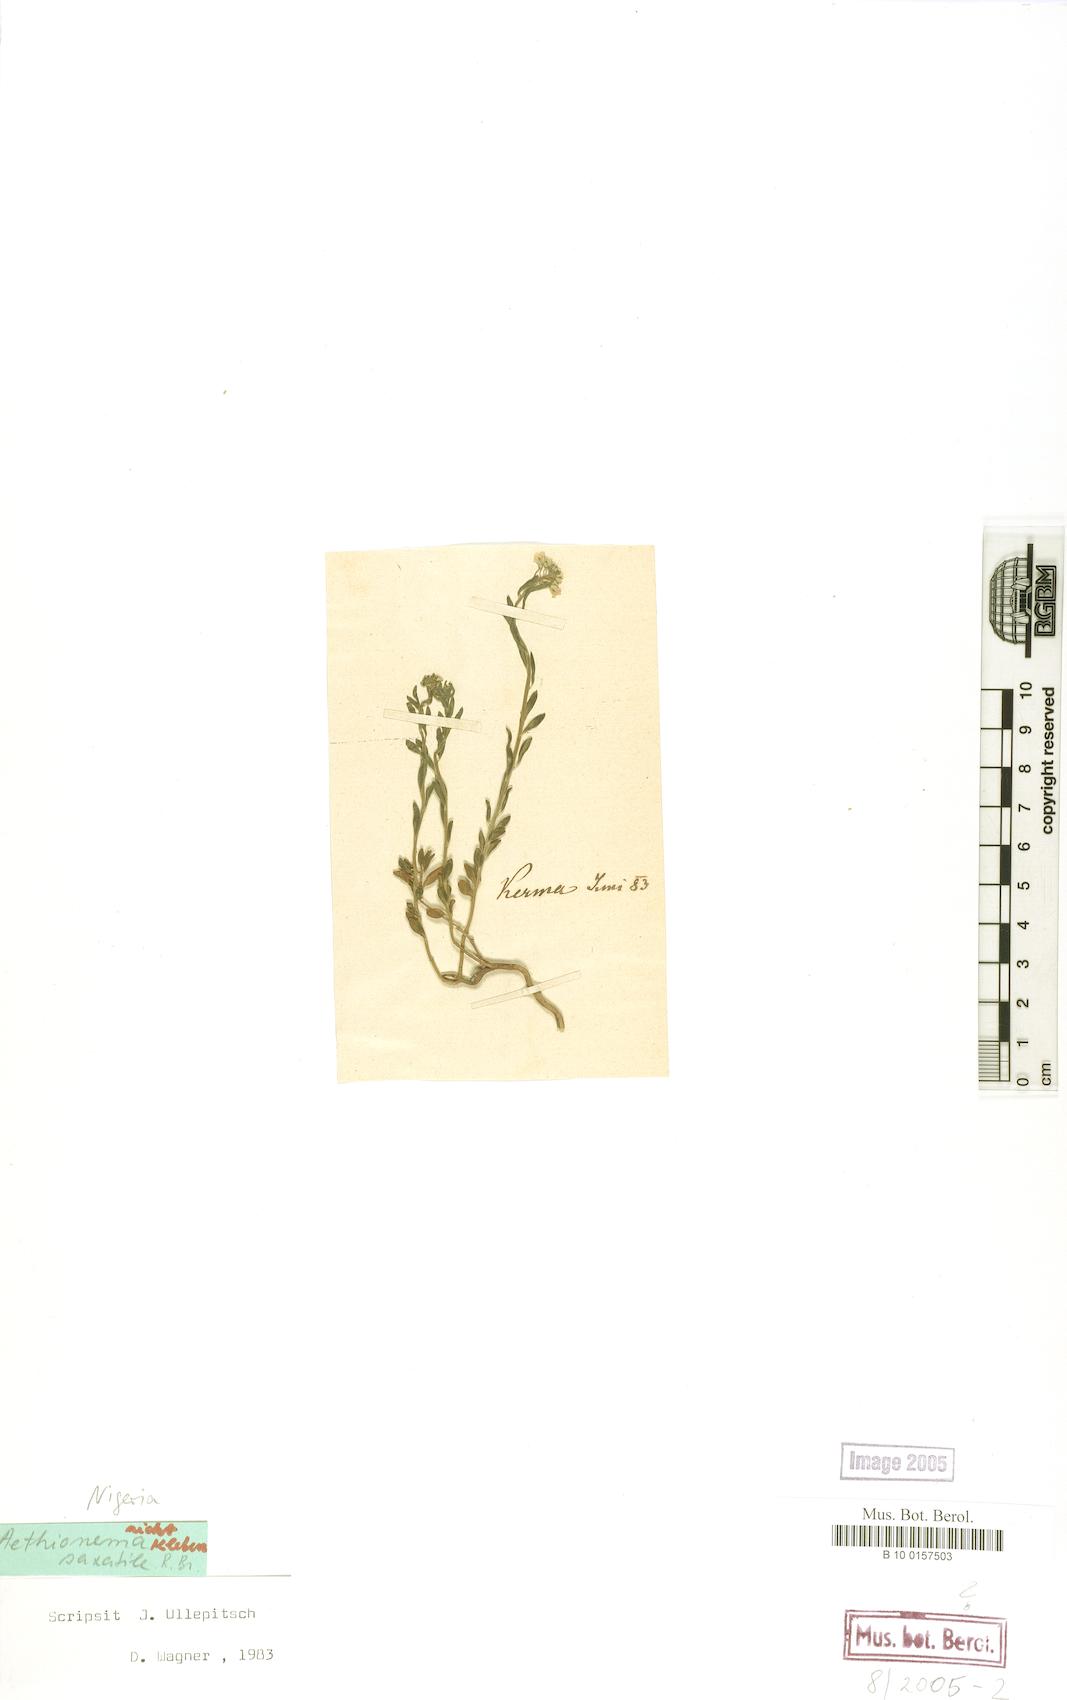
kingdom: Plantae
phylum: Tracheophyta
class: Magnoliopsida
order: Brassicales
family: Brassicaceae
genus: Aethionema
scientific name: Aethionema saxatile
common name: Burnt candytuft
